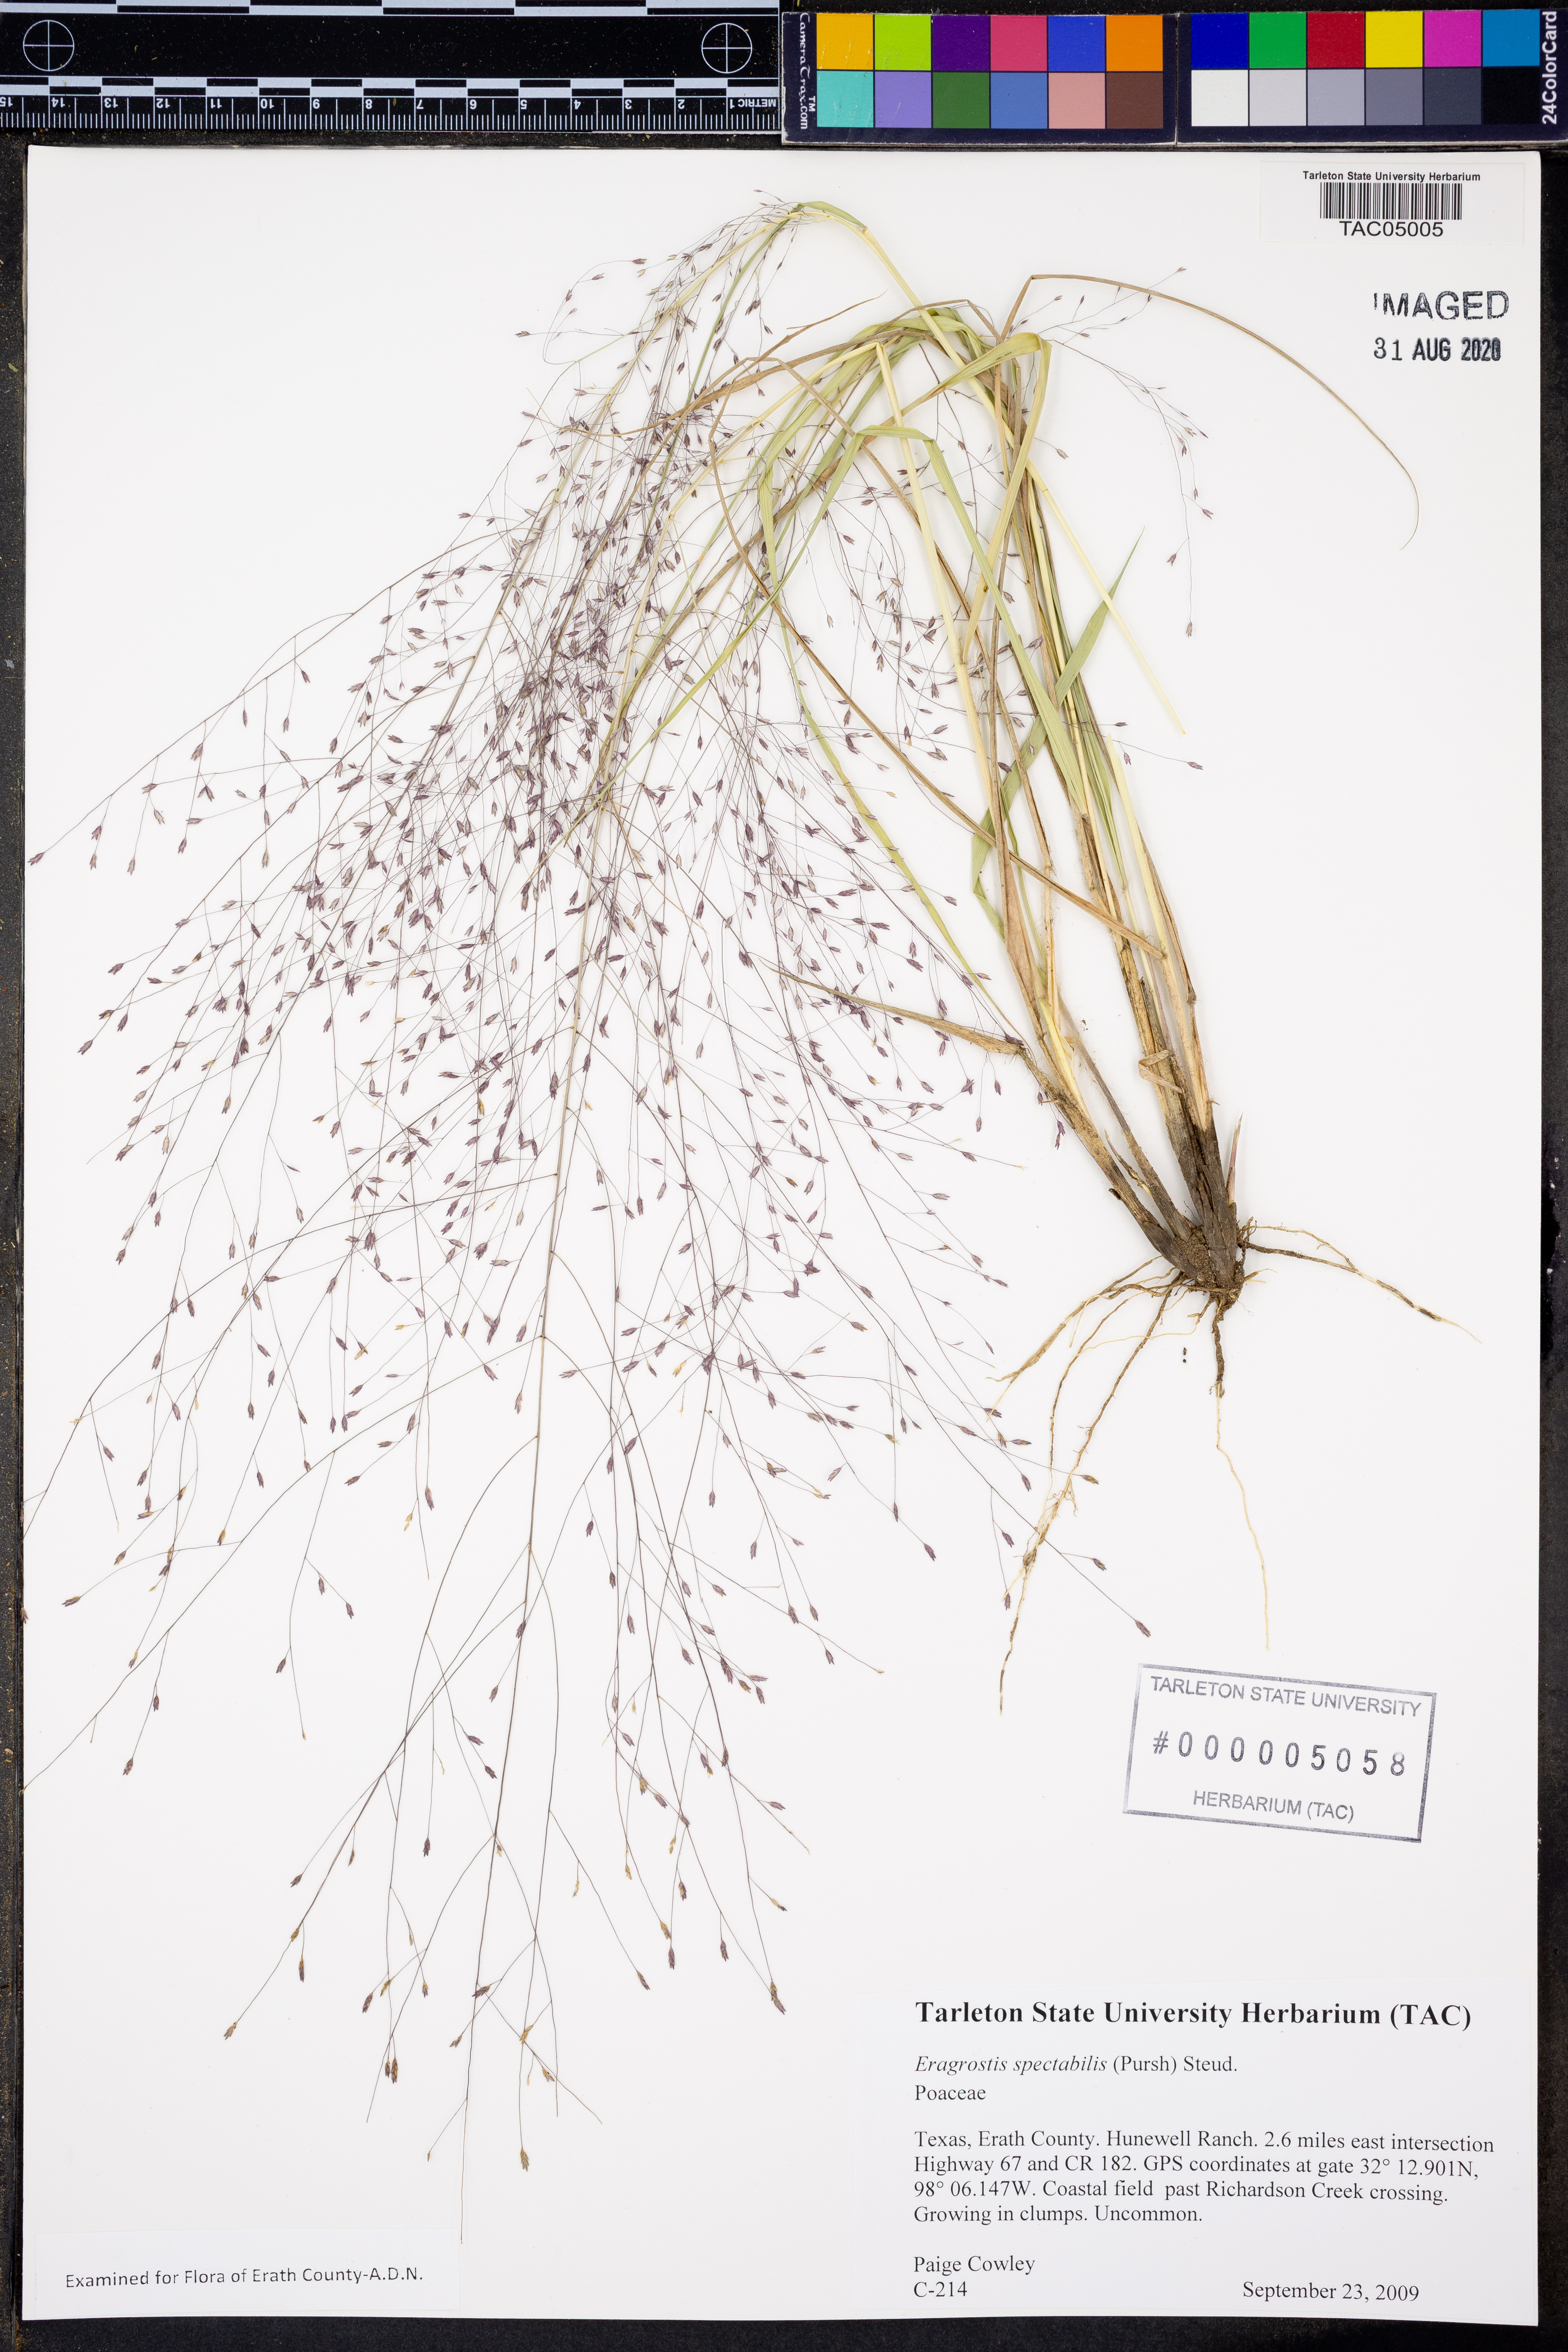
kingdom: Plantae
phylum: Tracheophyta
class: Liliopsida
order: Poales
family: Poaceae
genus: Eragrostis
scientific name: Eragrostis spectabilis
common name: Petticoat-climber
